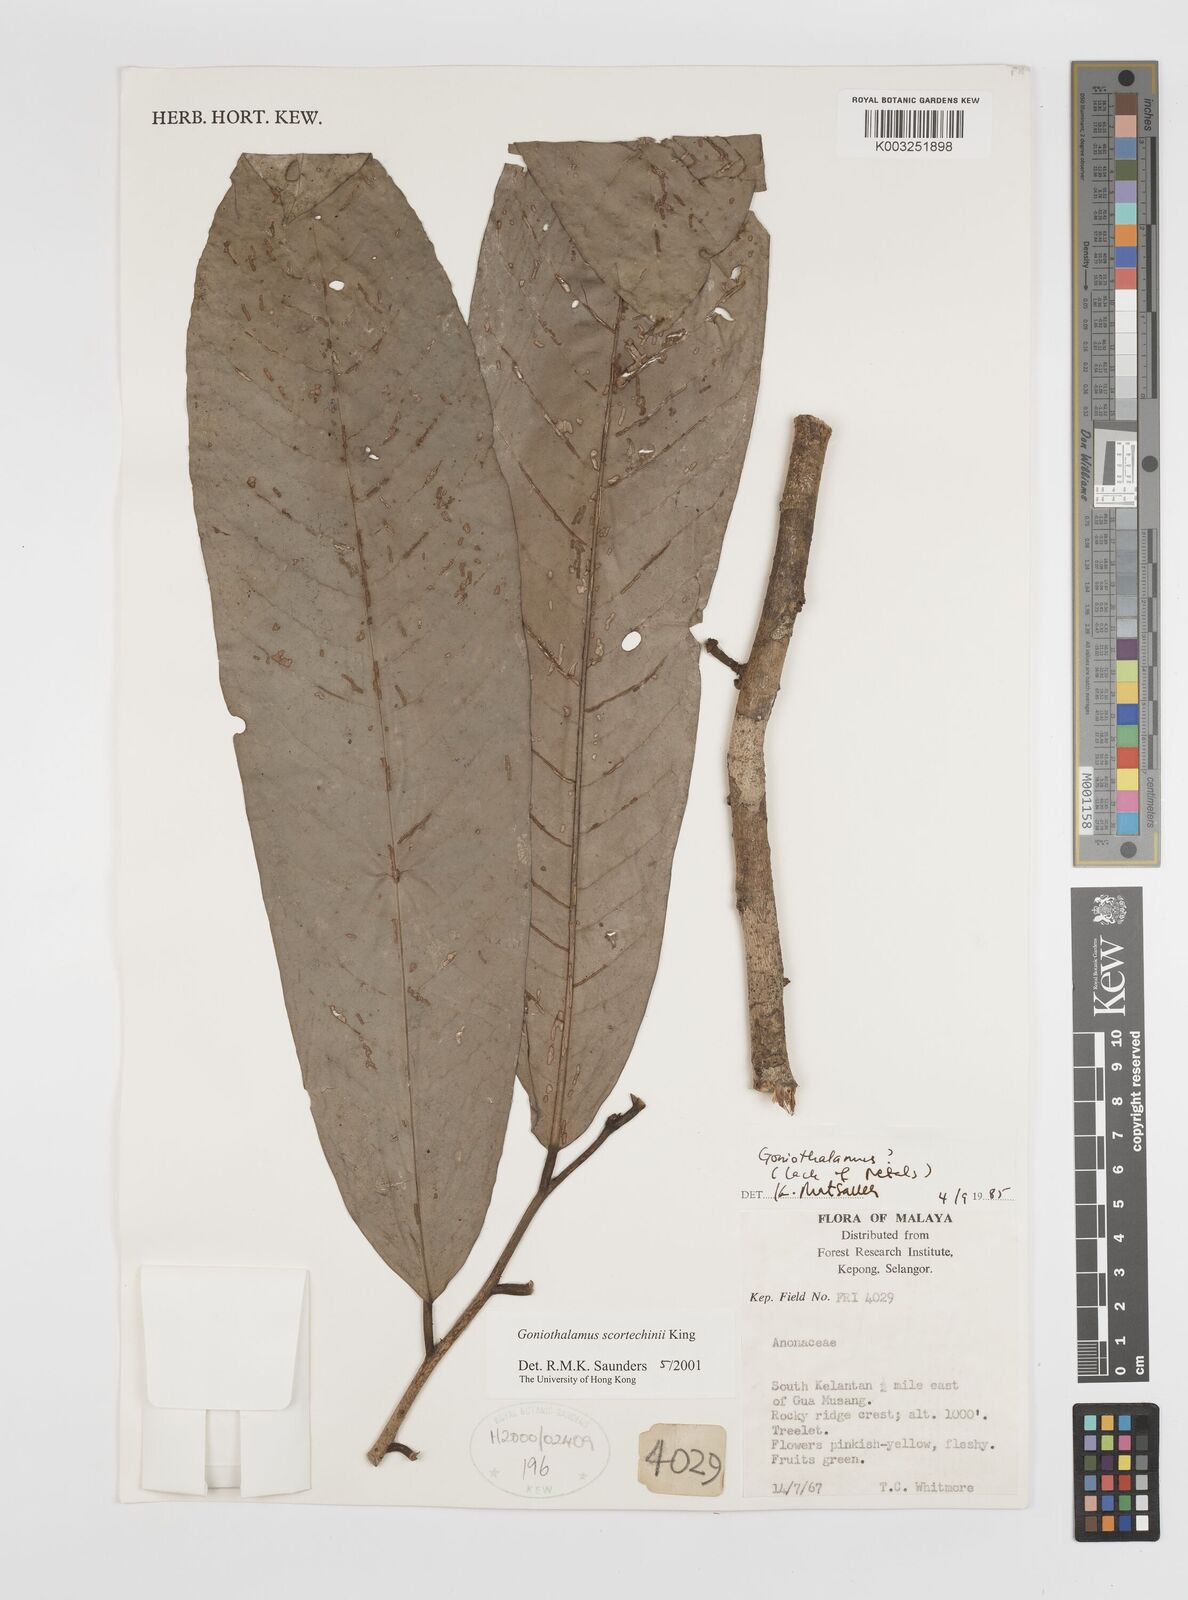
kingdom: Plantae
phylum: Tracheophyta
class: Magnoliopsida
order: Magnoliales
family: Annonaceae
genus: Goniothalamus
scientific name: Goniothalamus scortechinii
